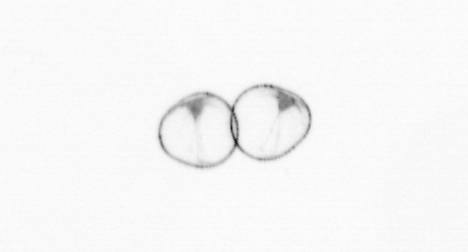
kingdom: Chromista
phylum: Myzozoa
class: Dinophyceae
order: Noctilucales
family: Noctilucaceae
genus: Noctiluca
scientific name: Noctiluca scintillans
